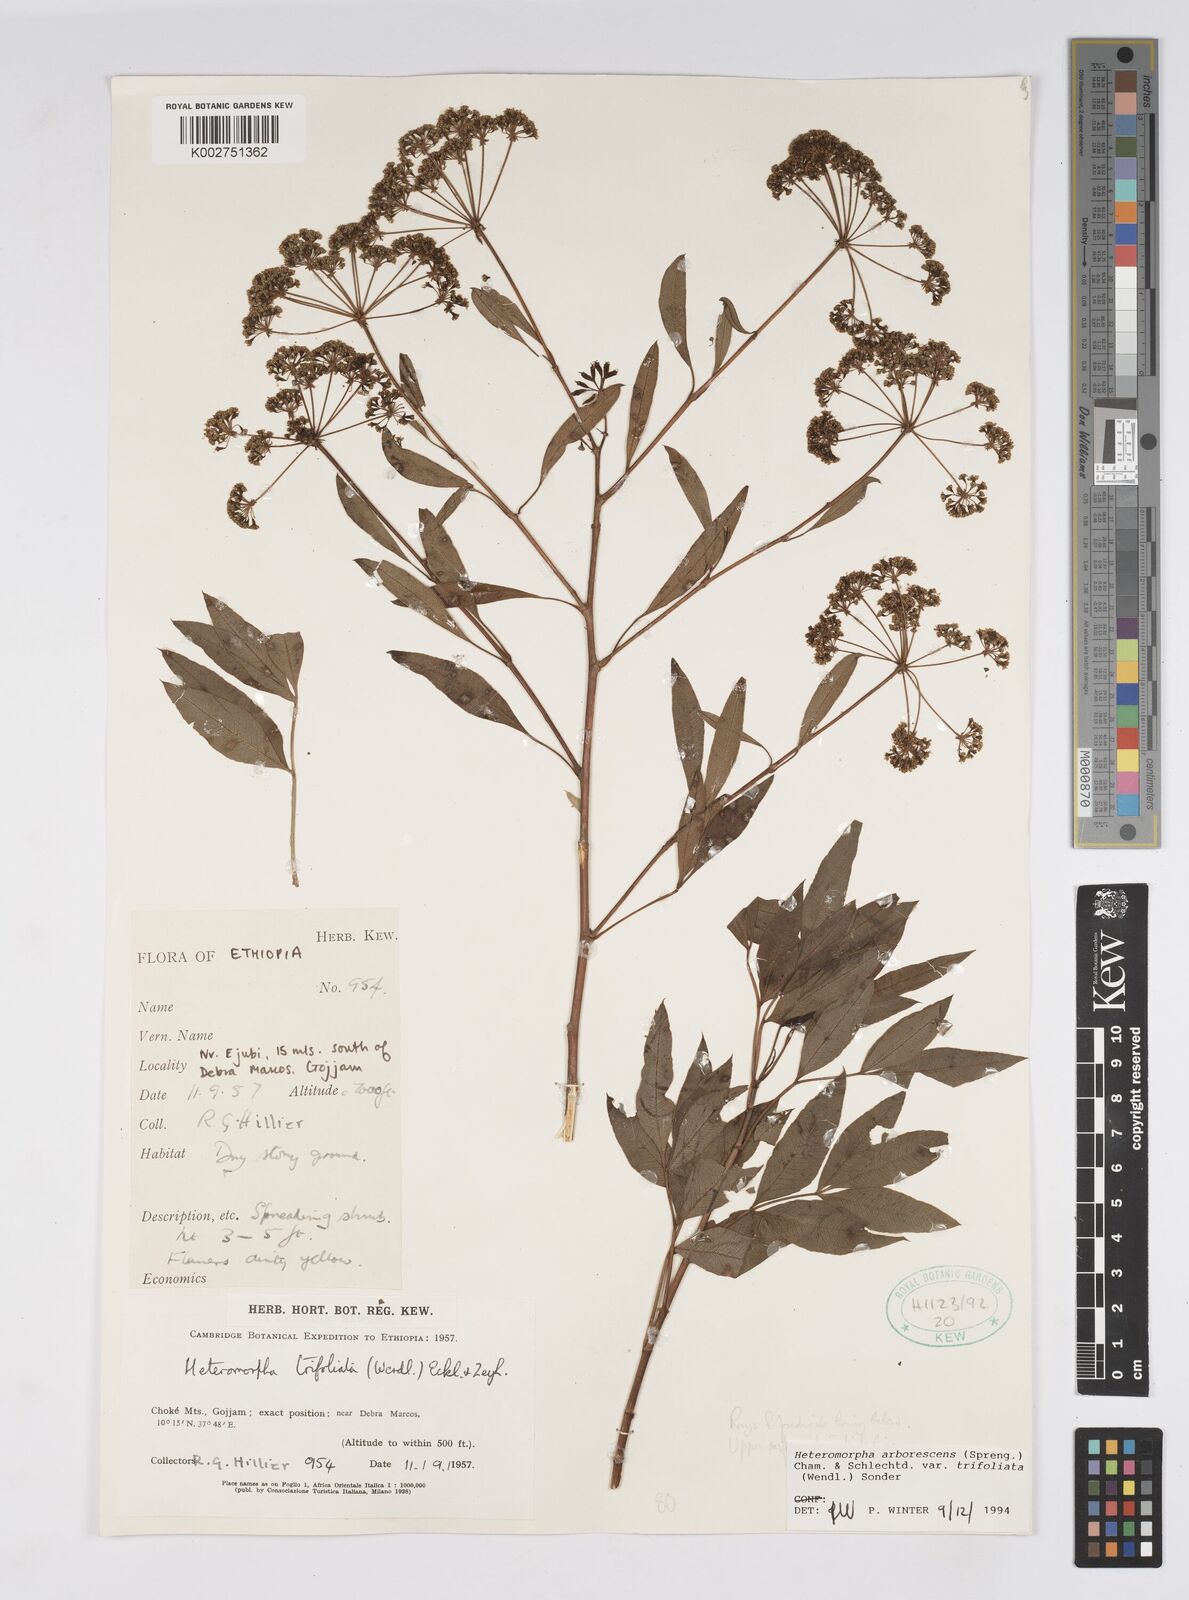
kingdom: Plantae
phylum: Tracheophyta
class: Magnoliopsida
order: Apiales
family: Apiaceae
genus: Heteromorpha
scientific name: Heteromorpha arborescens
